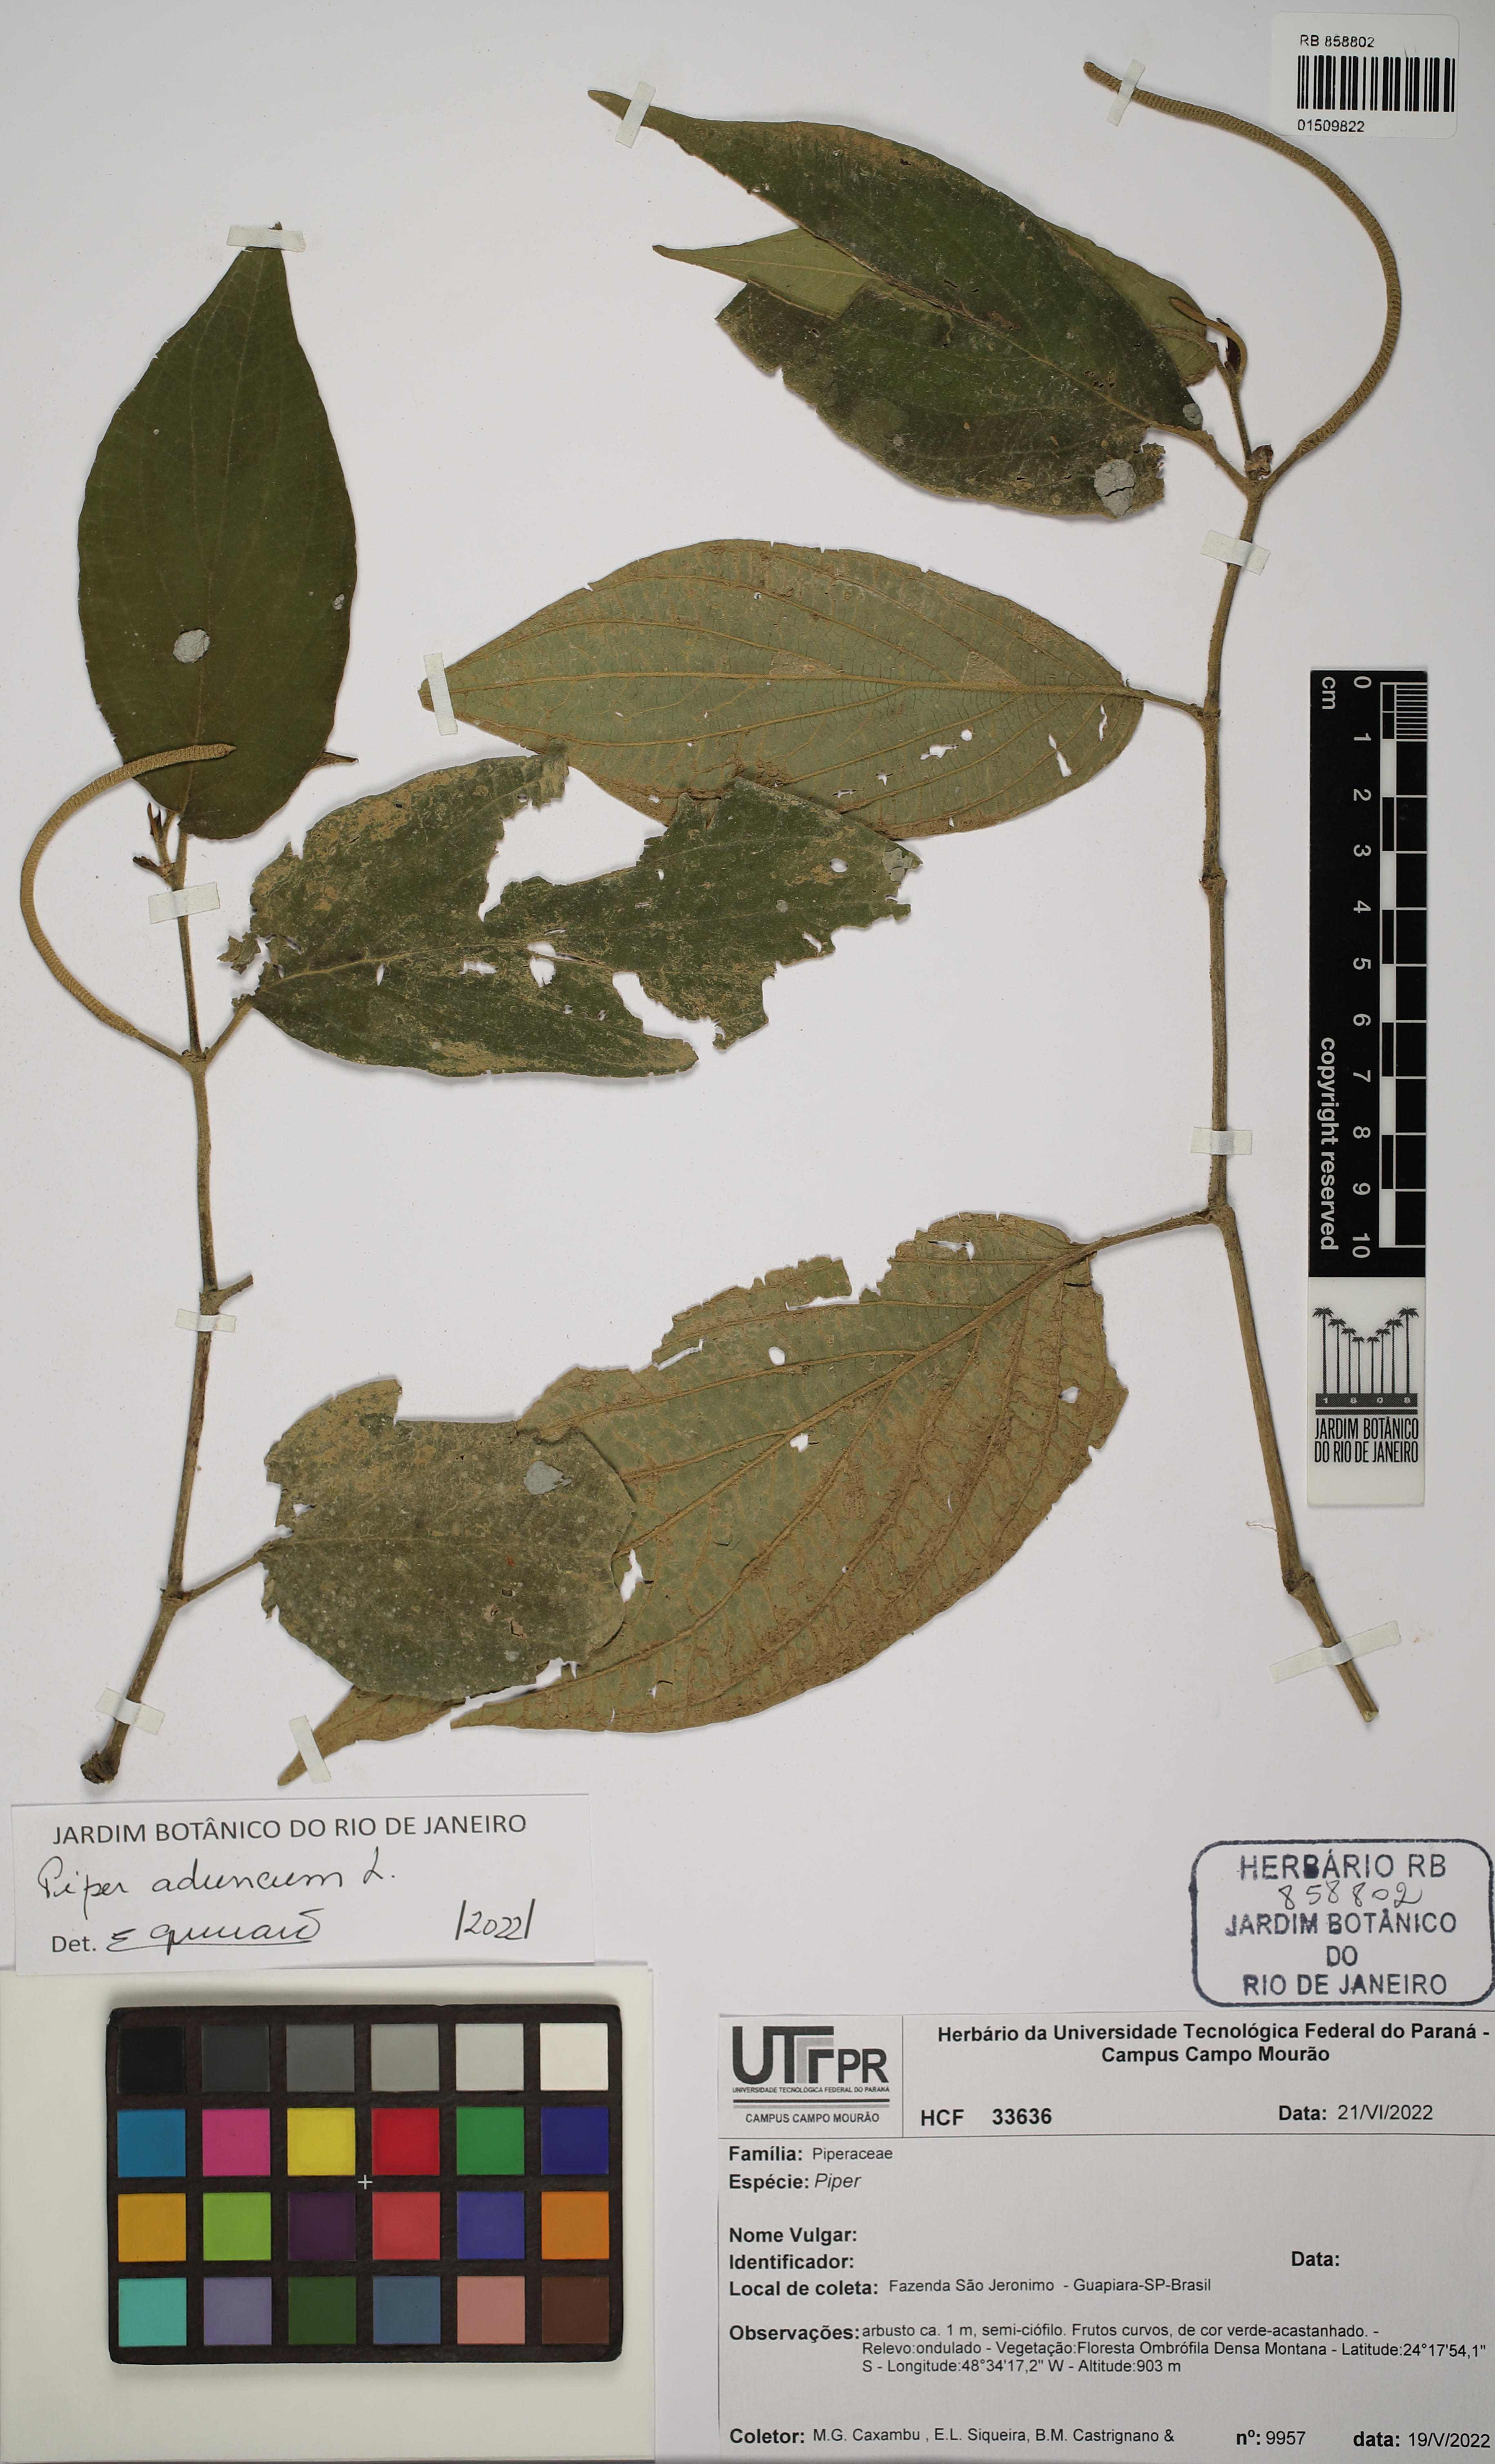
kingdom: Plantae
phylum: Tracheophyta
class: Magnoliopsida
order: Piperales
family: Piperaceae
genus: Piper
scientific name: Piper aduncum
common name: Spiked pepper
